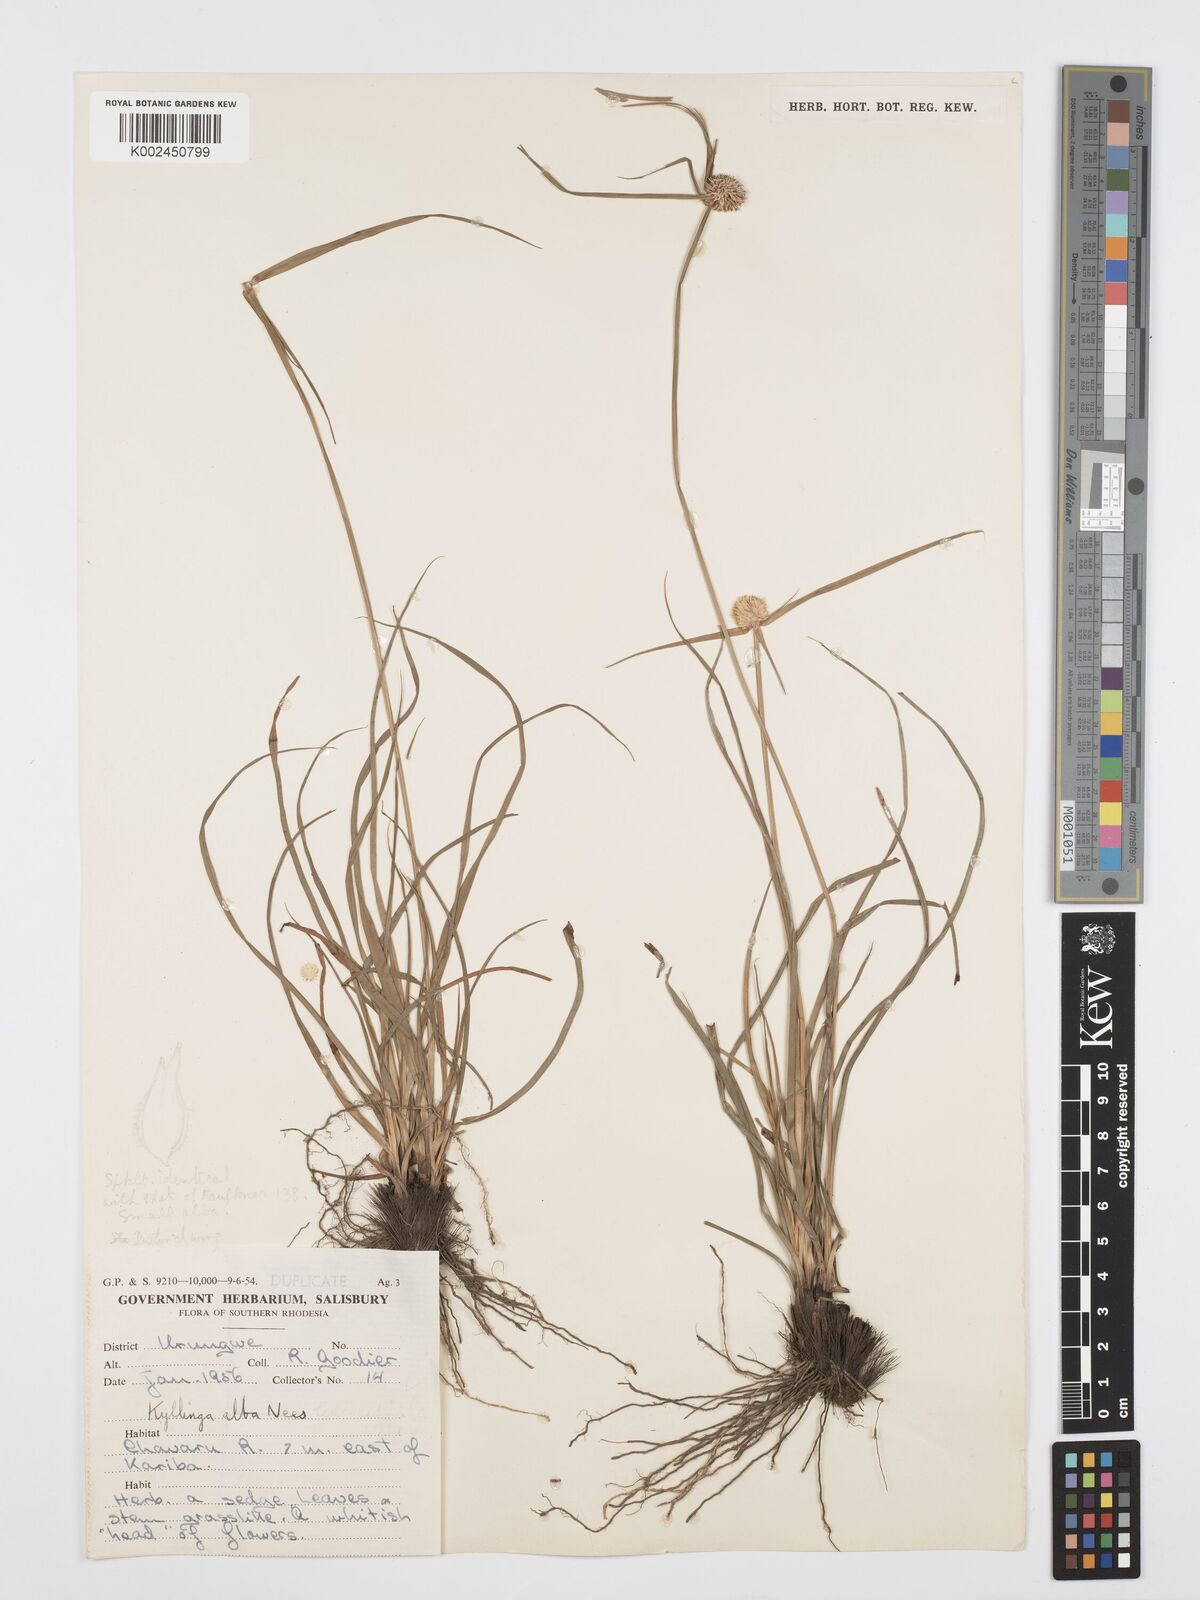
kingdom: Plantae
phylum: Tracheophyta
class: Liliopsida
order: Poales
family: Cyperaceae
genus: Cyperus
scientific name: Cyperus
